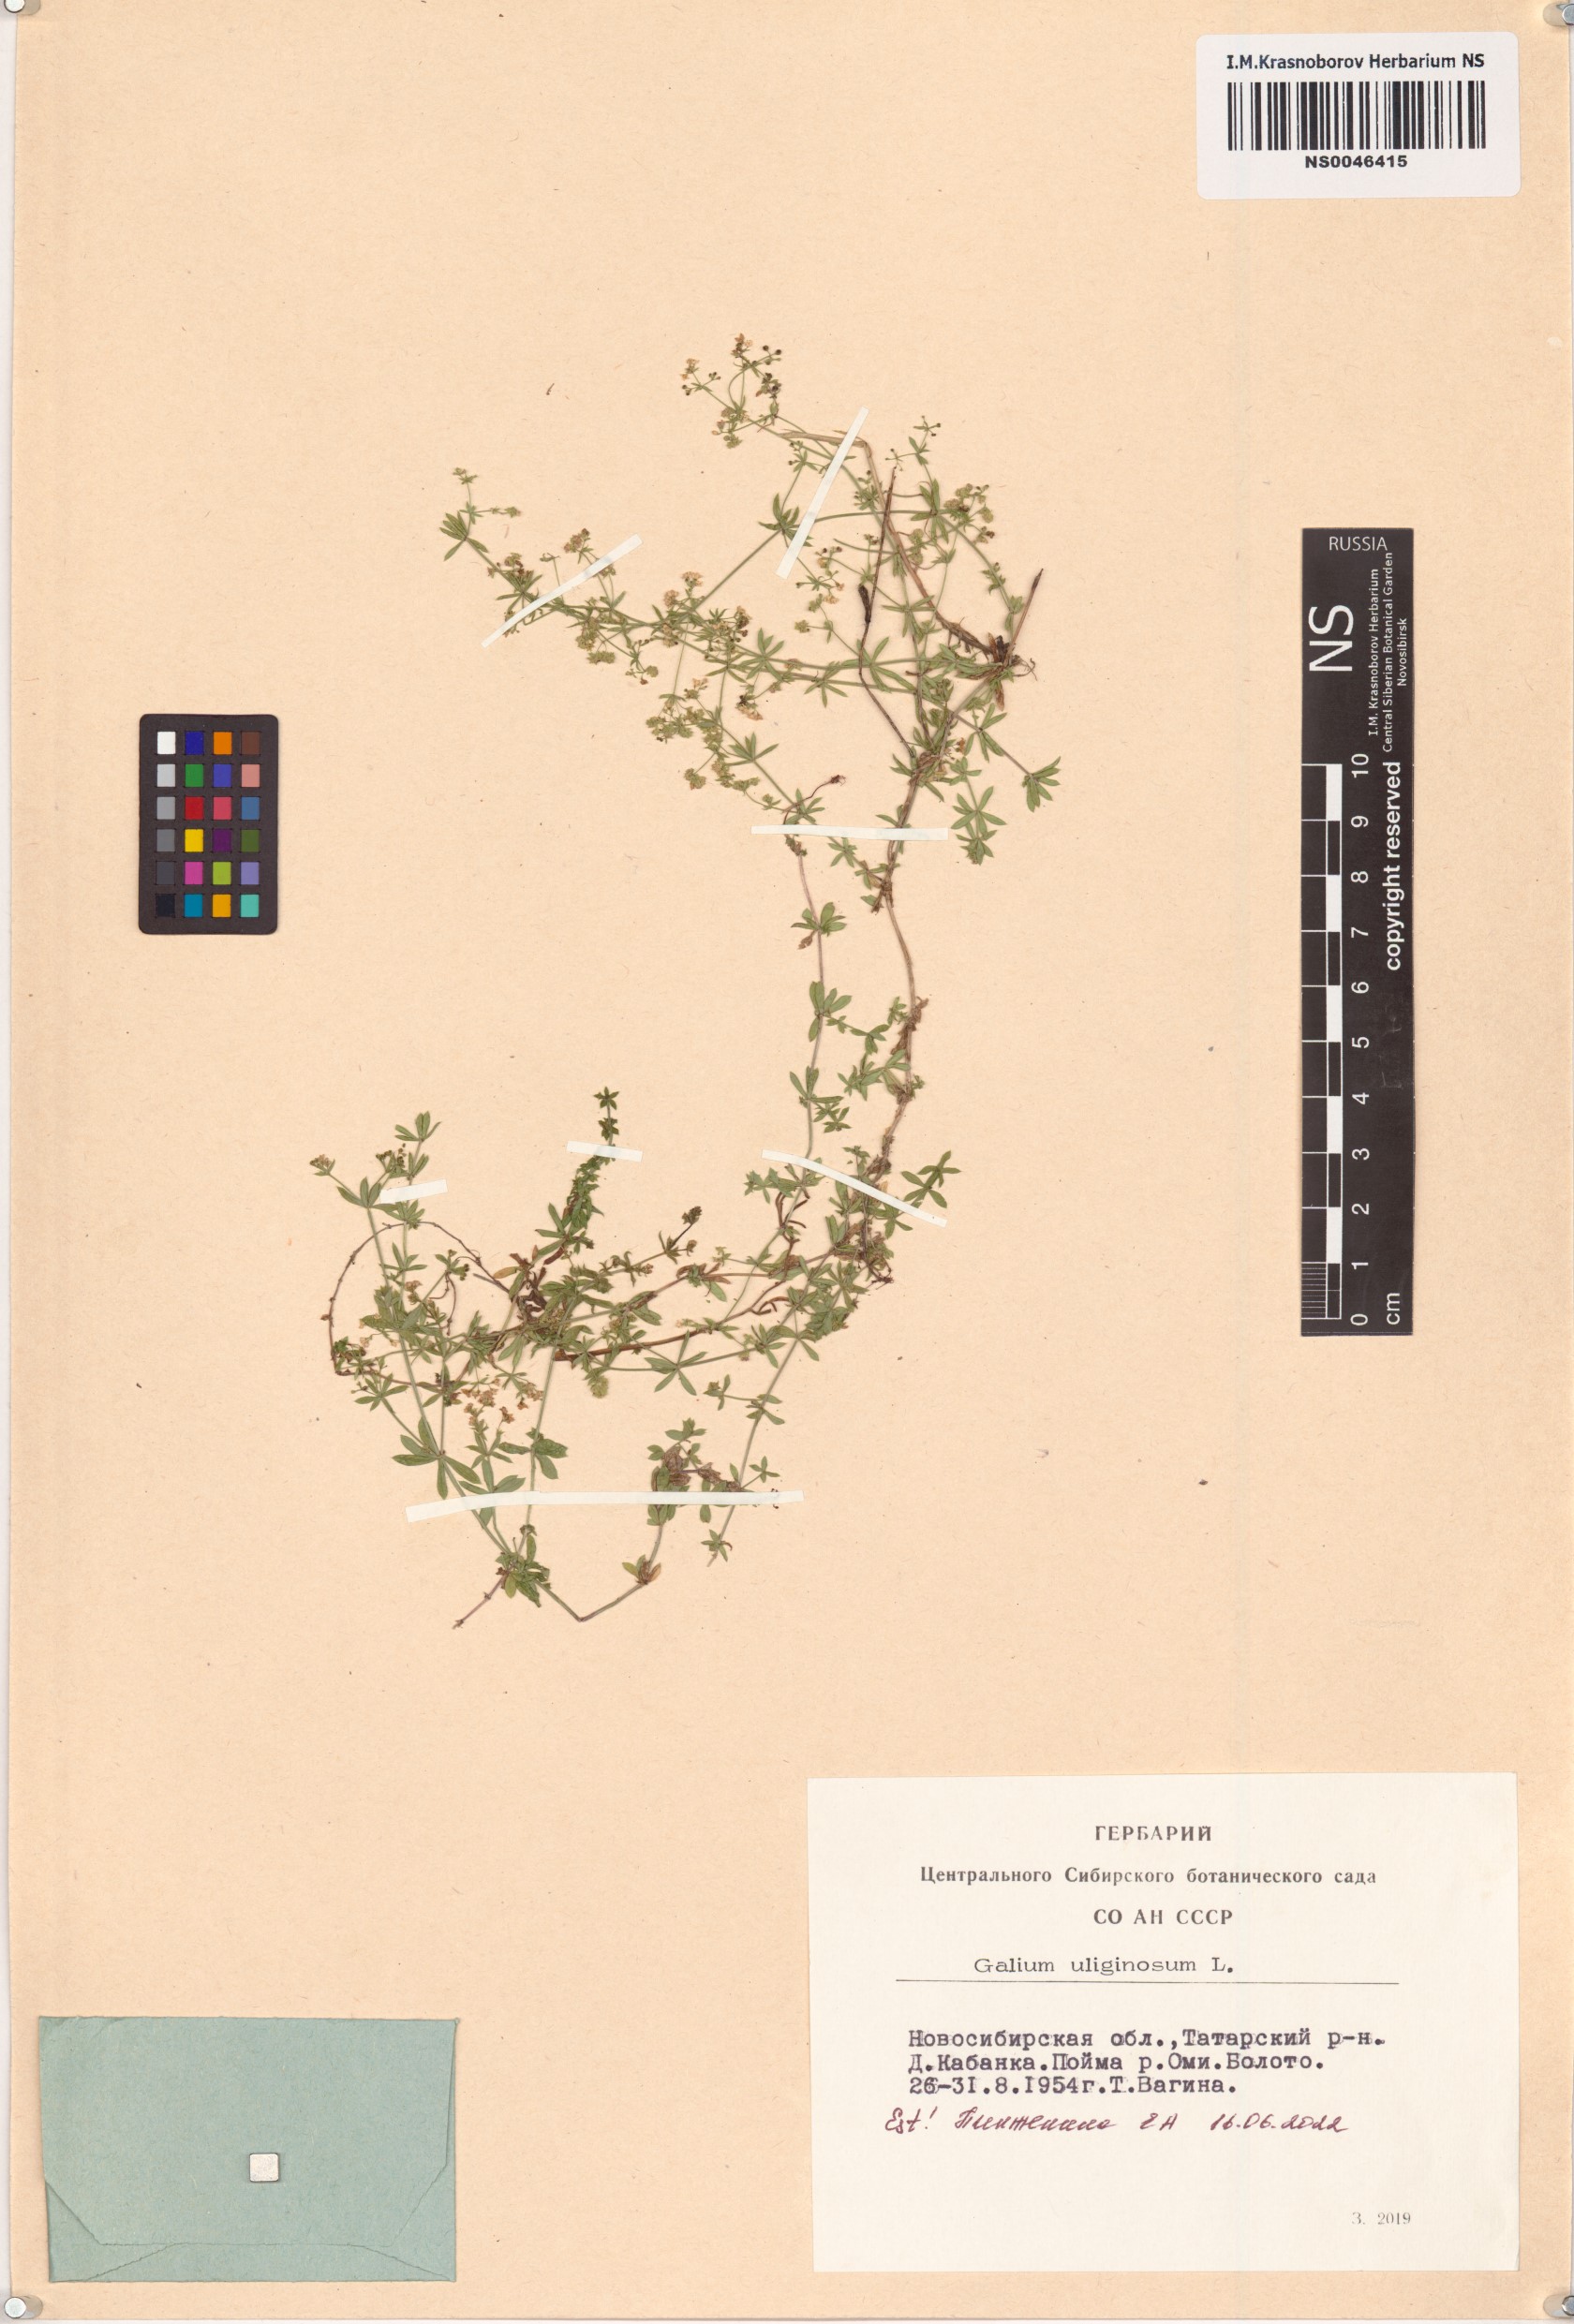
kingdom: Plantae
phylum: Tracheophyta
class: Magnoliopsida
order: Gentianales
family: Rubiaceae
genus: Galium
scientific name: Galium uliginosum
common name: Fen bedstraw
